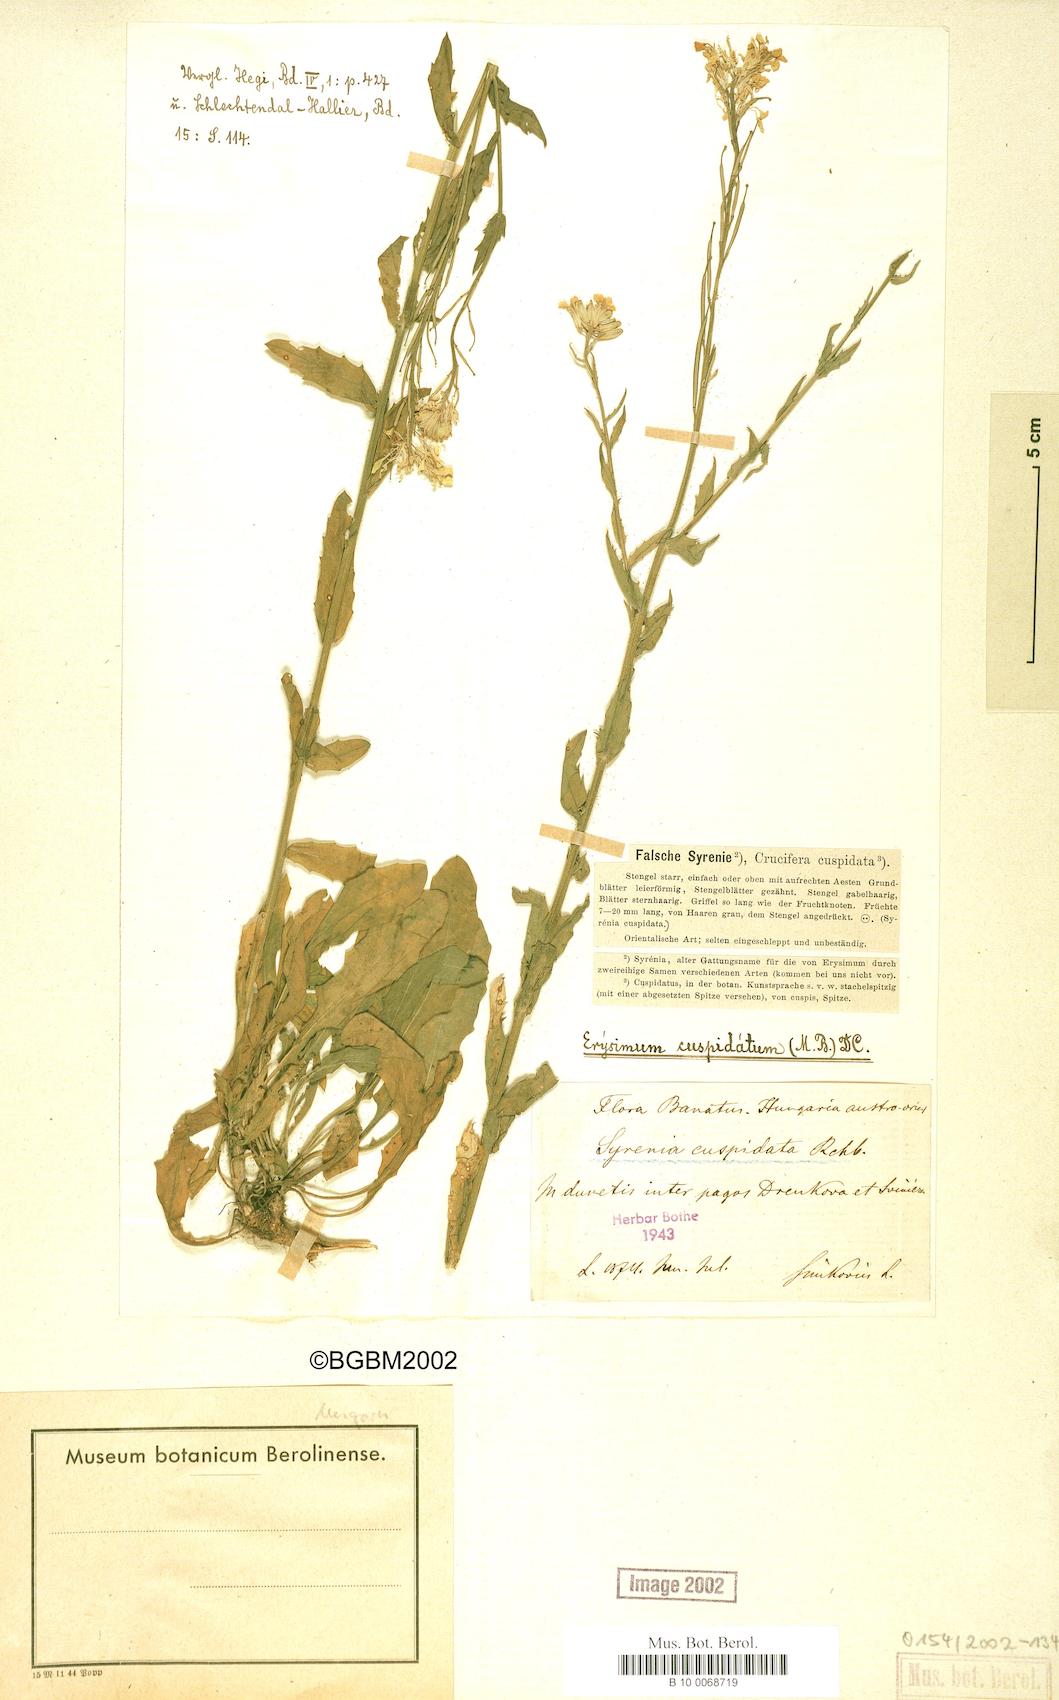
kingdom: Plantae
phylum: Tracheophyta
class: Magnoliopsida
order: Brassicales
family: Brassicaceae
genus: Erysimum
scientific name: Erysimum cuspidatum
